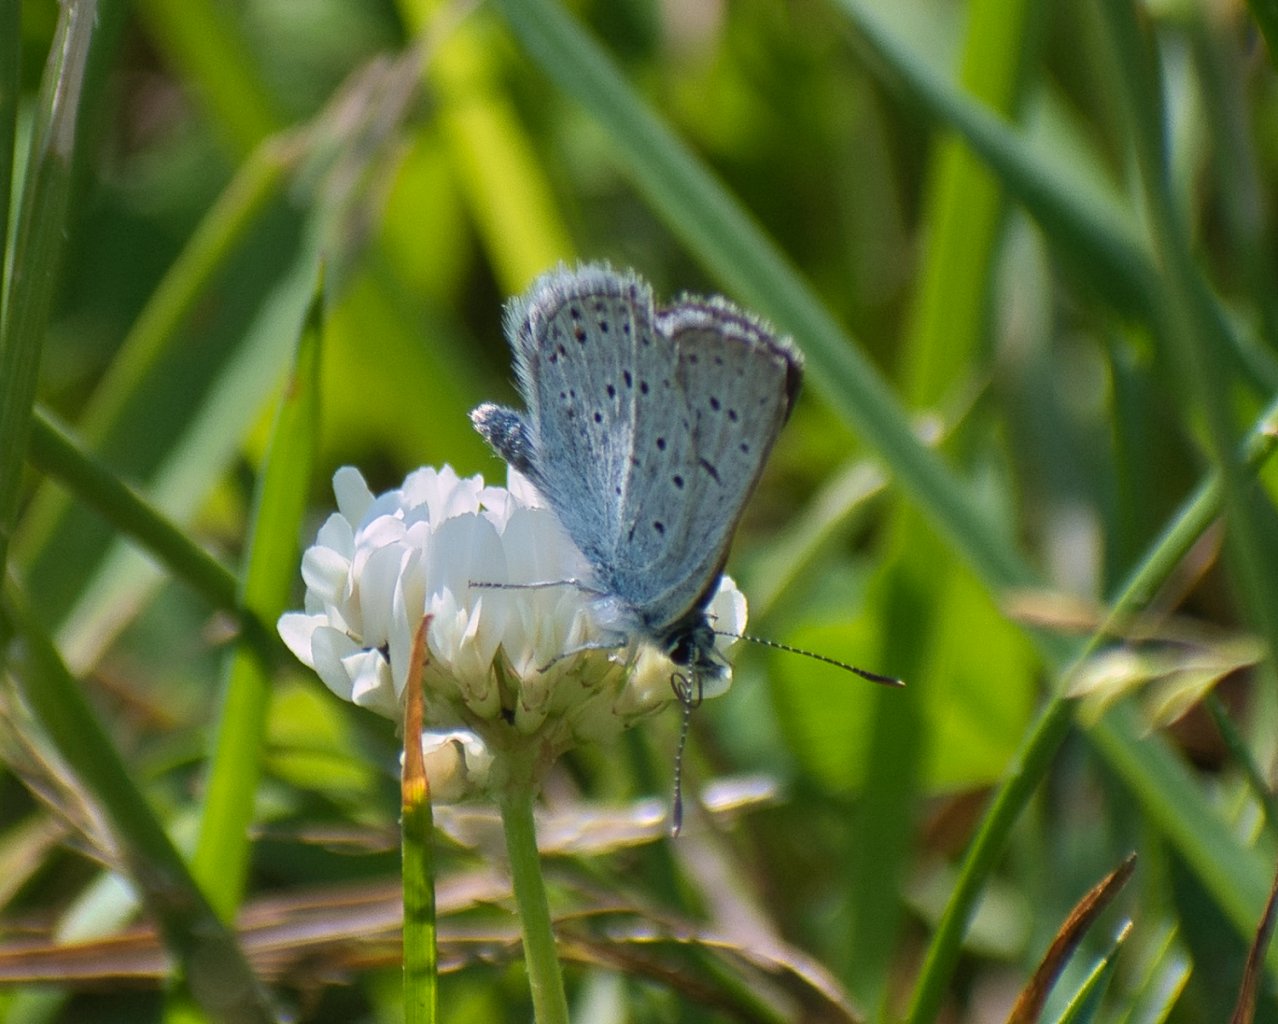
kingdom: Animalia
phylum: Arthropoda
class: Insecta
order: Lepidoptera
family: Lycaenidae
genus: Plebejus
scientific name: Plebejus saepiolus
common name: Greenish Blue
